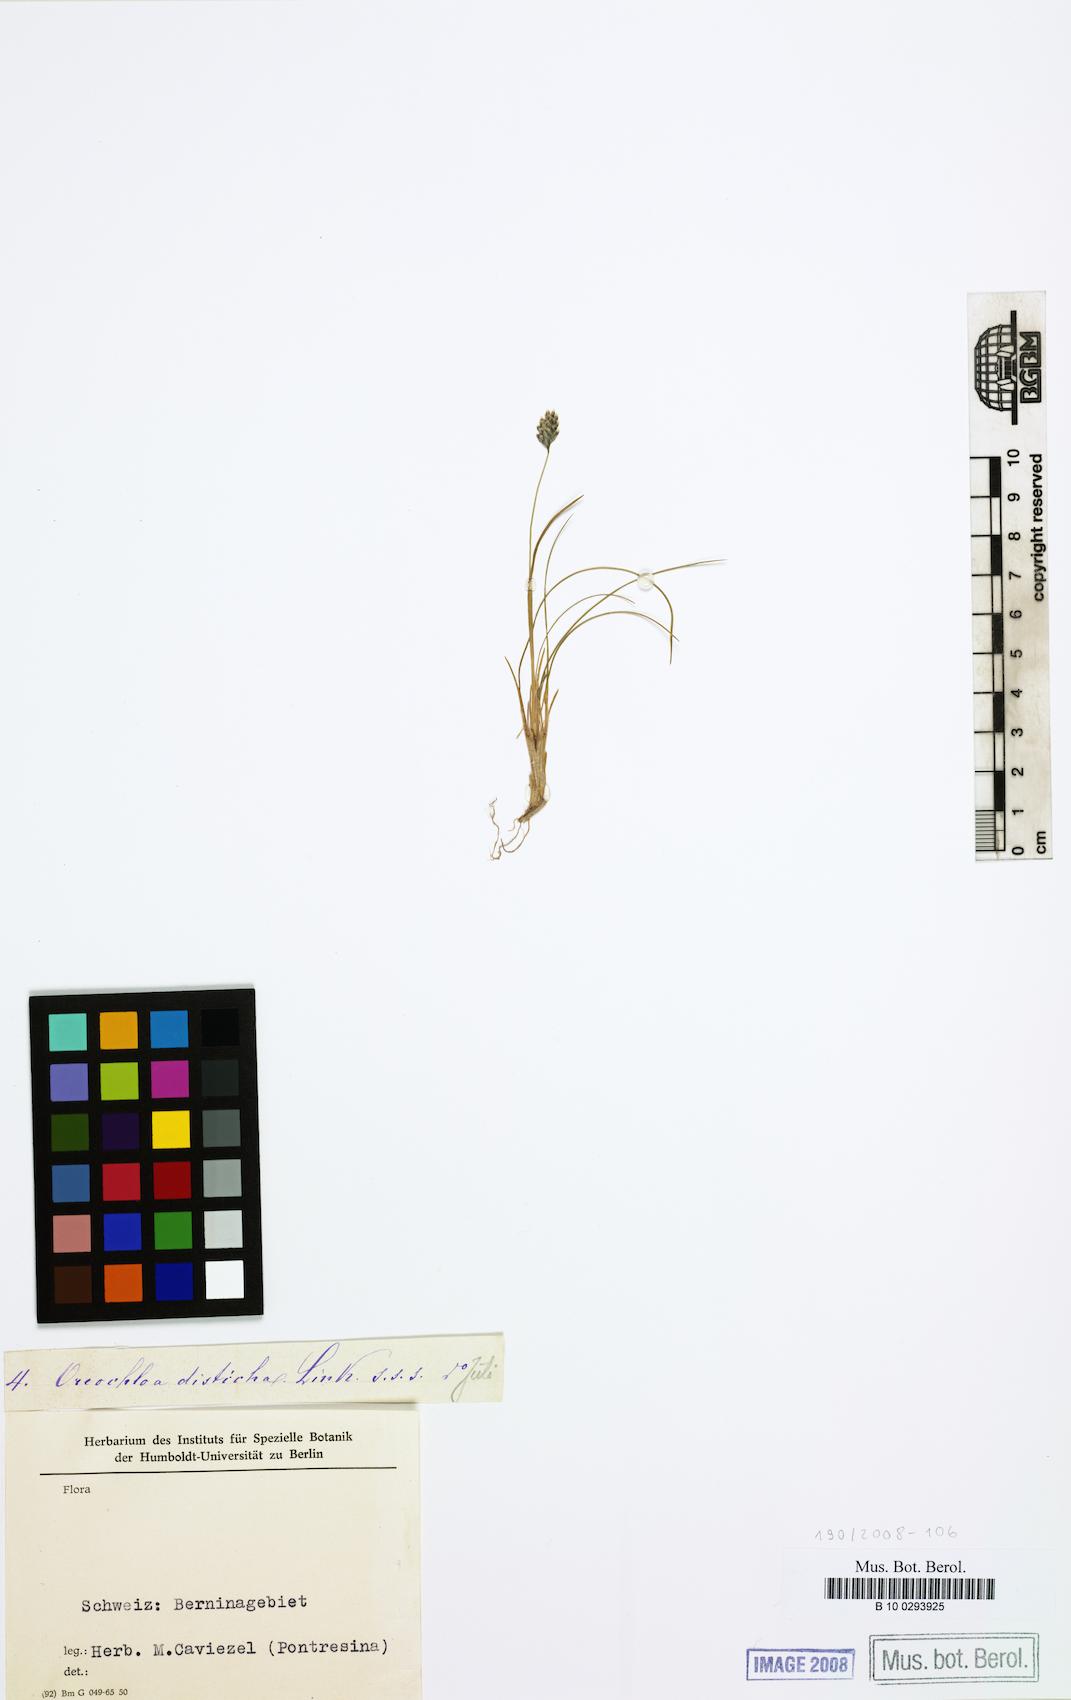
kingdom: Plantae
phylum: Tracheophyta
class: Liliopsida
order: Poales
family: Poaceae
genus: Oreochloa
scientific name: Oreochloa disticha
